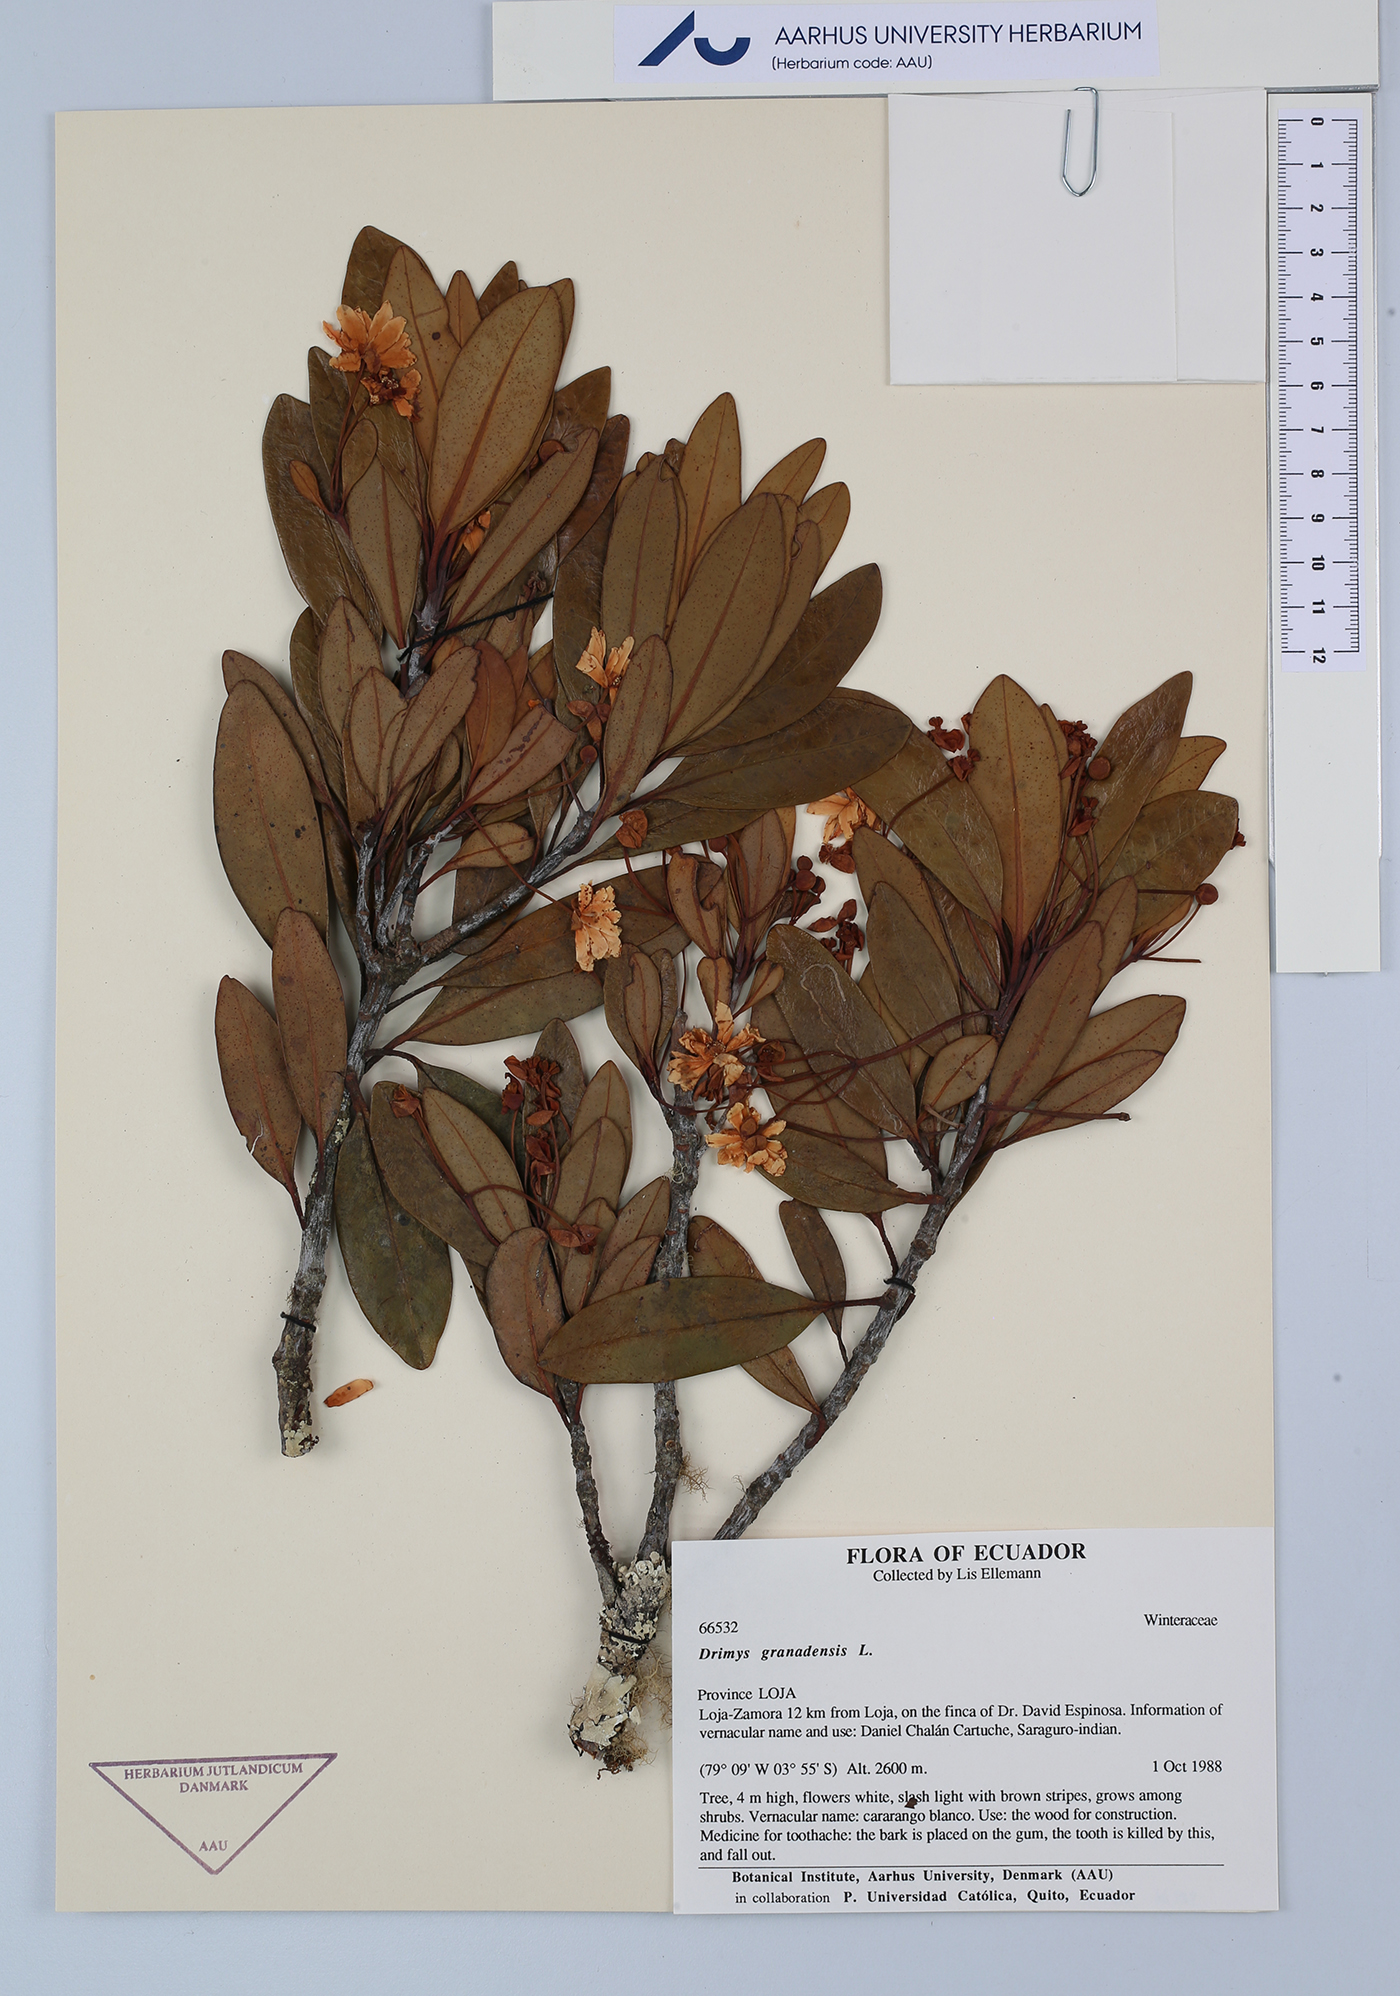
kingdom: Plantae
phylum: Tracheophyta
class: Magnoliopsida
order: Canellales
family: Winteraceae
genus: Drimys
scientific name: Drimys granadensis
